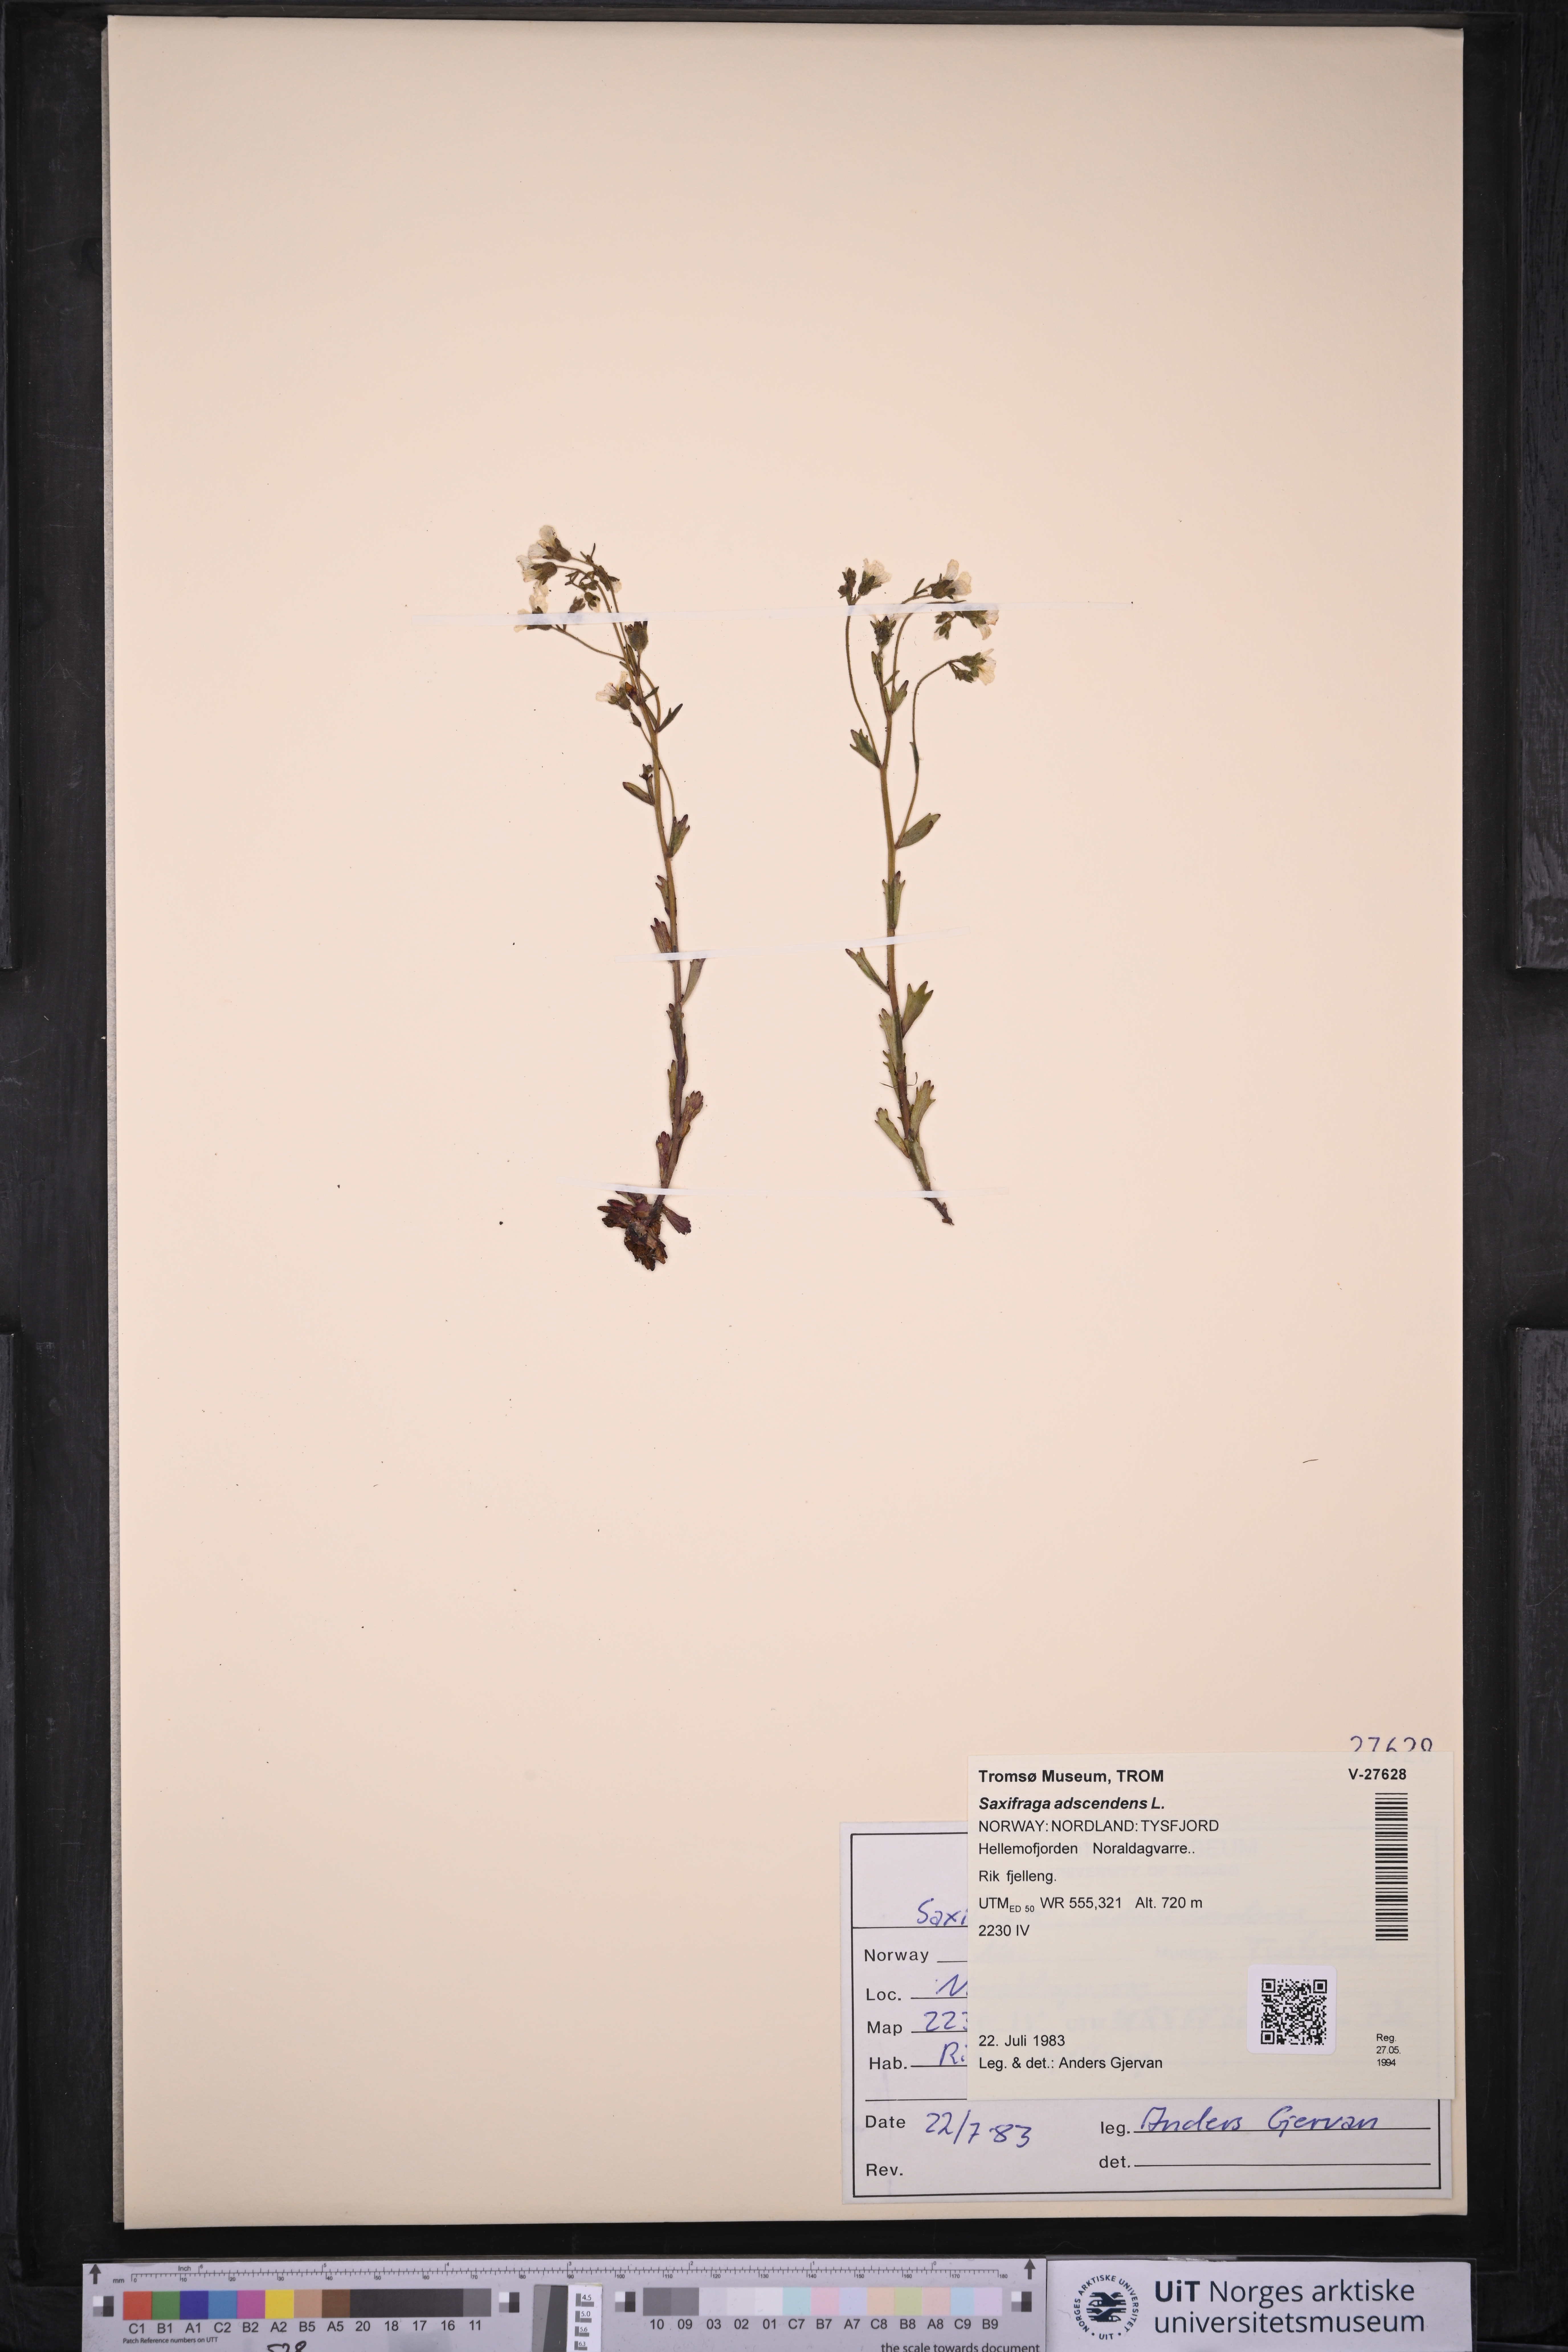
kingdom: Plantae
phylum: Tracheophyta
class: Magnoliopsida
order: Saxifragales
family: Saxifragaceae
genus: Saxifraga
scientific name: Saxifraga adscendens
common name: Ascending saxifrage
